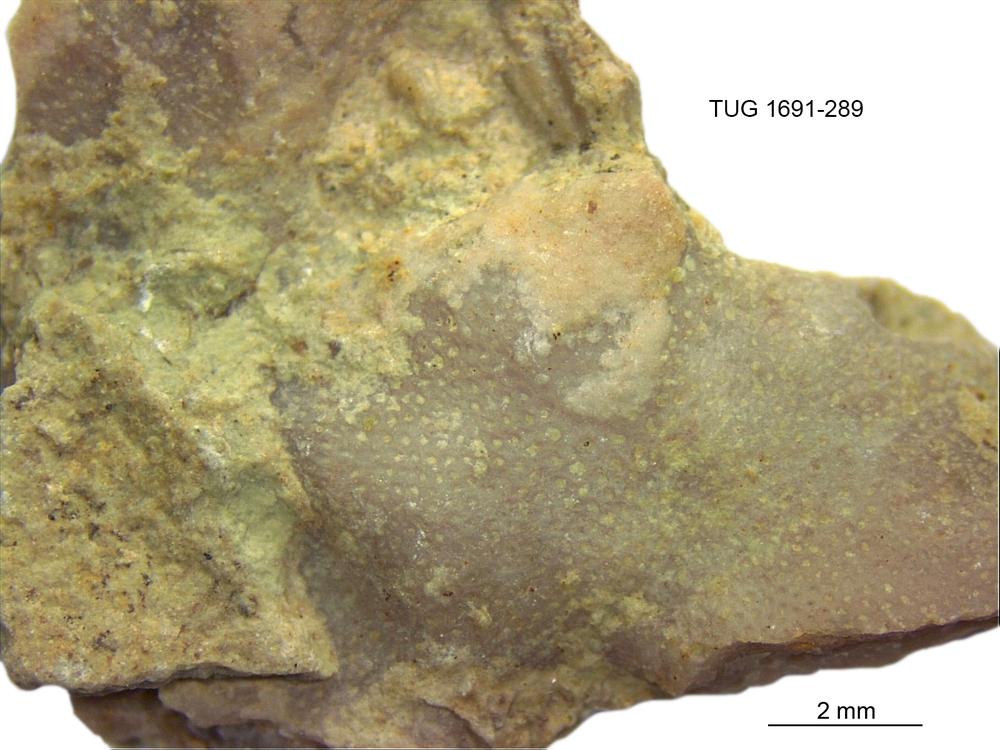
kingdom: Animalia
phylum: Bryozoa
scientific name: Bryozoa
